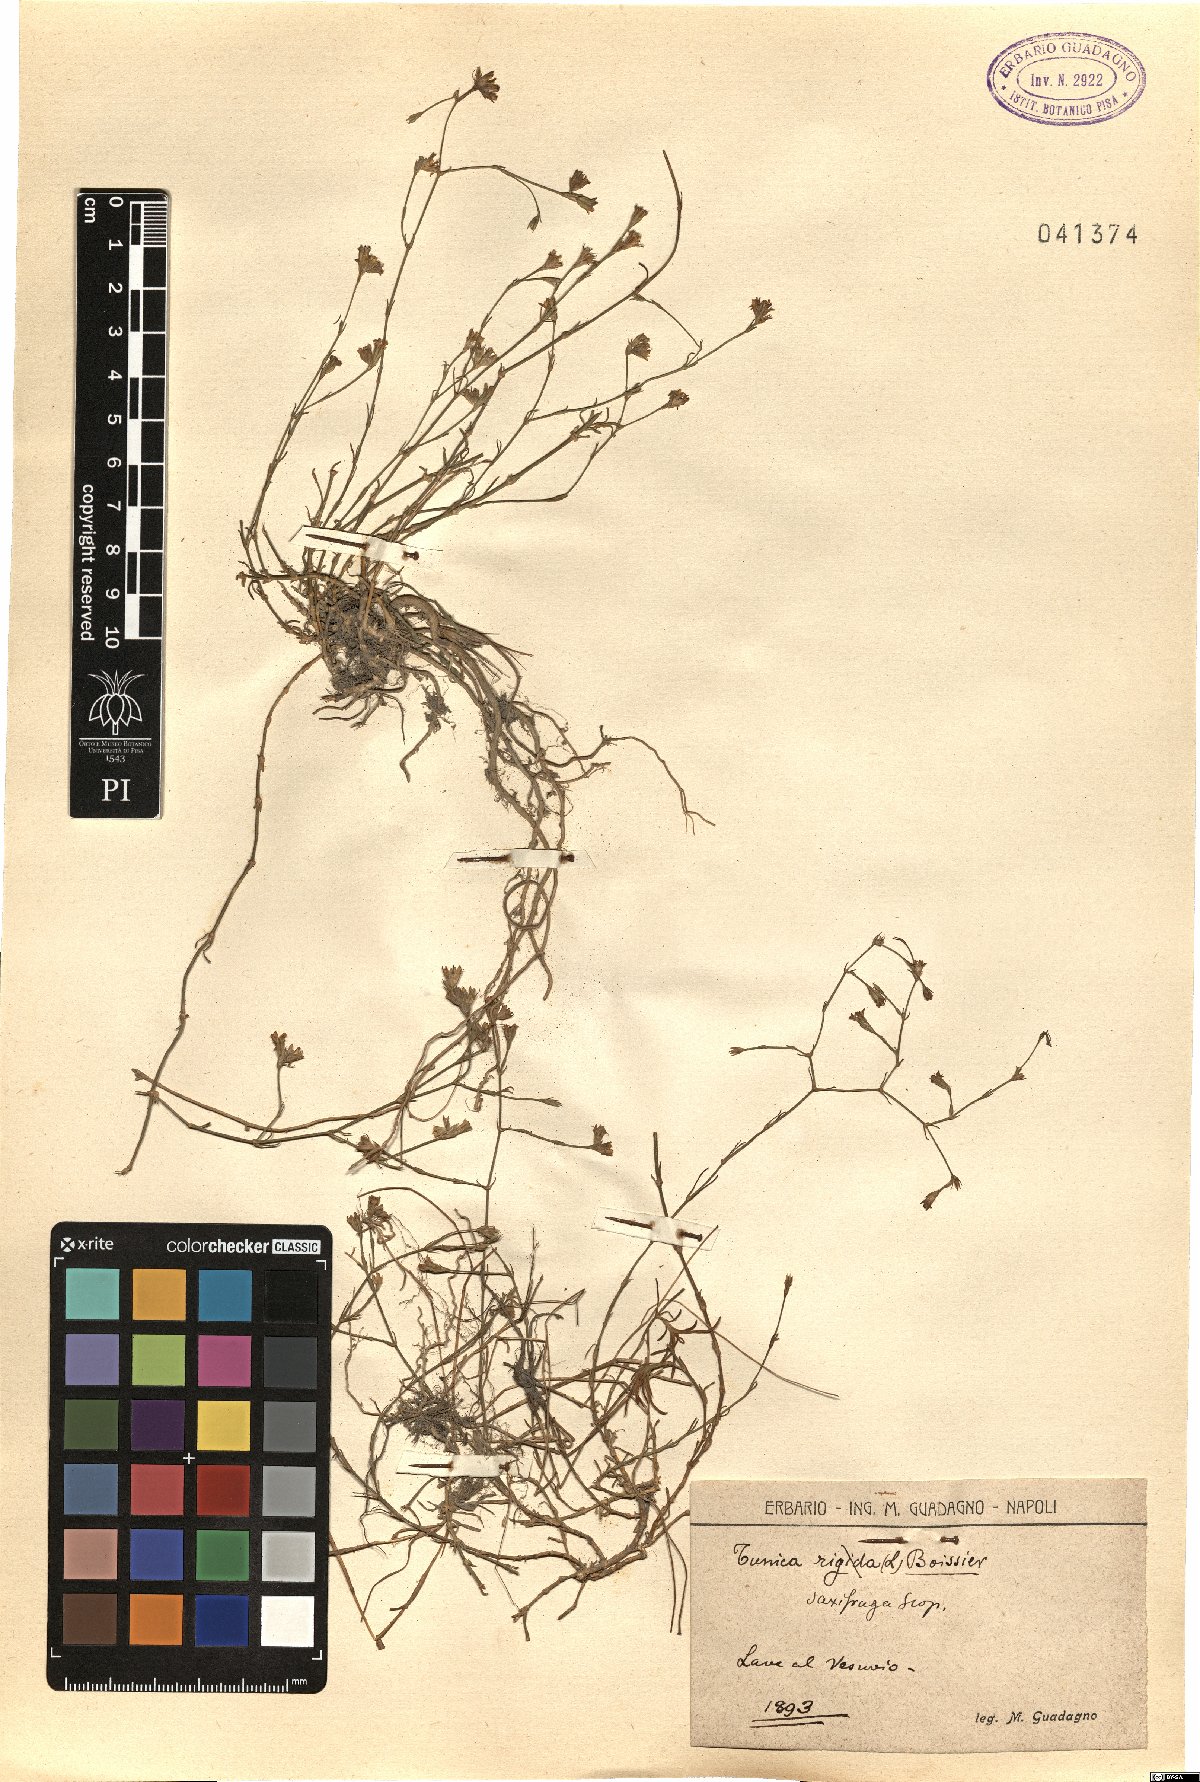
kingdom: Plantae
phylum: Tracheophyta
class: Magnoliopsida
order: Caryophyllales
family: Caryophyllaceae
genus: Petrorhagia
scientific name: Petrorhagia saxifraga
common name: Tunicflower
